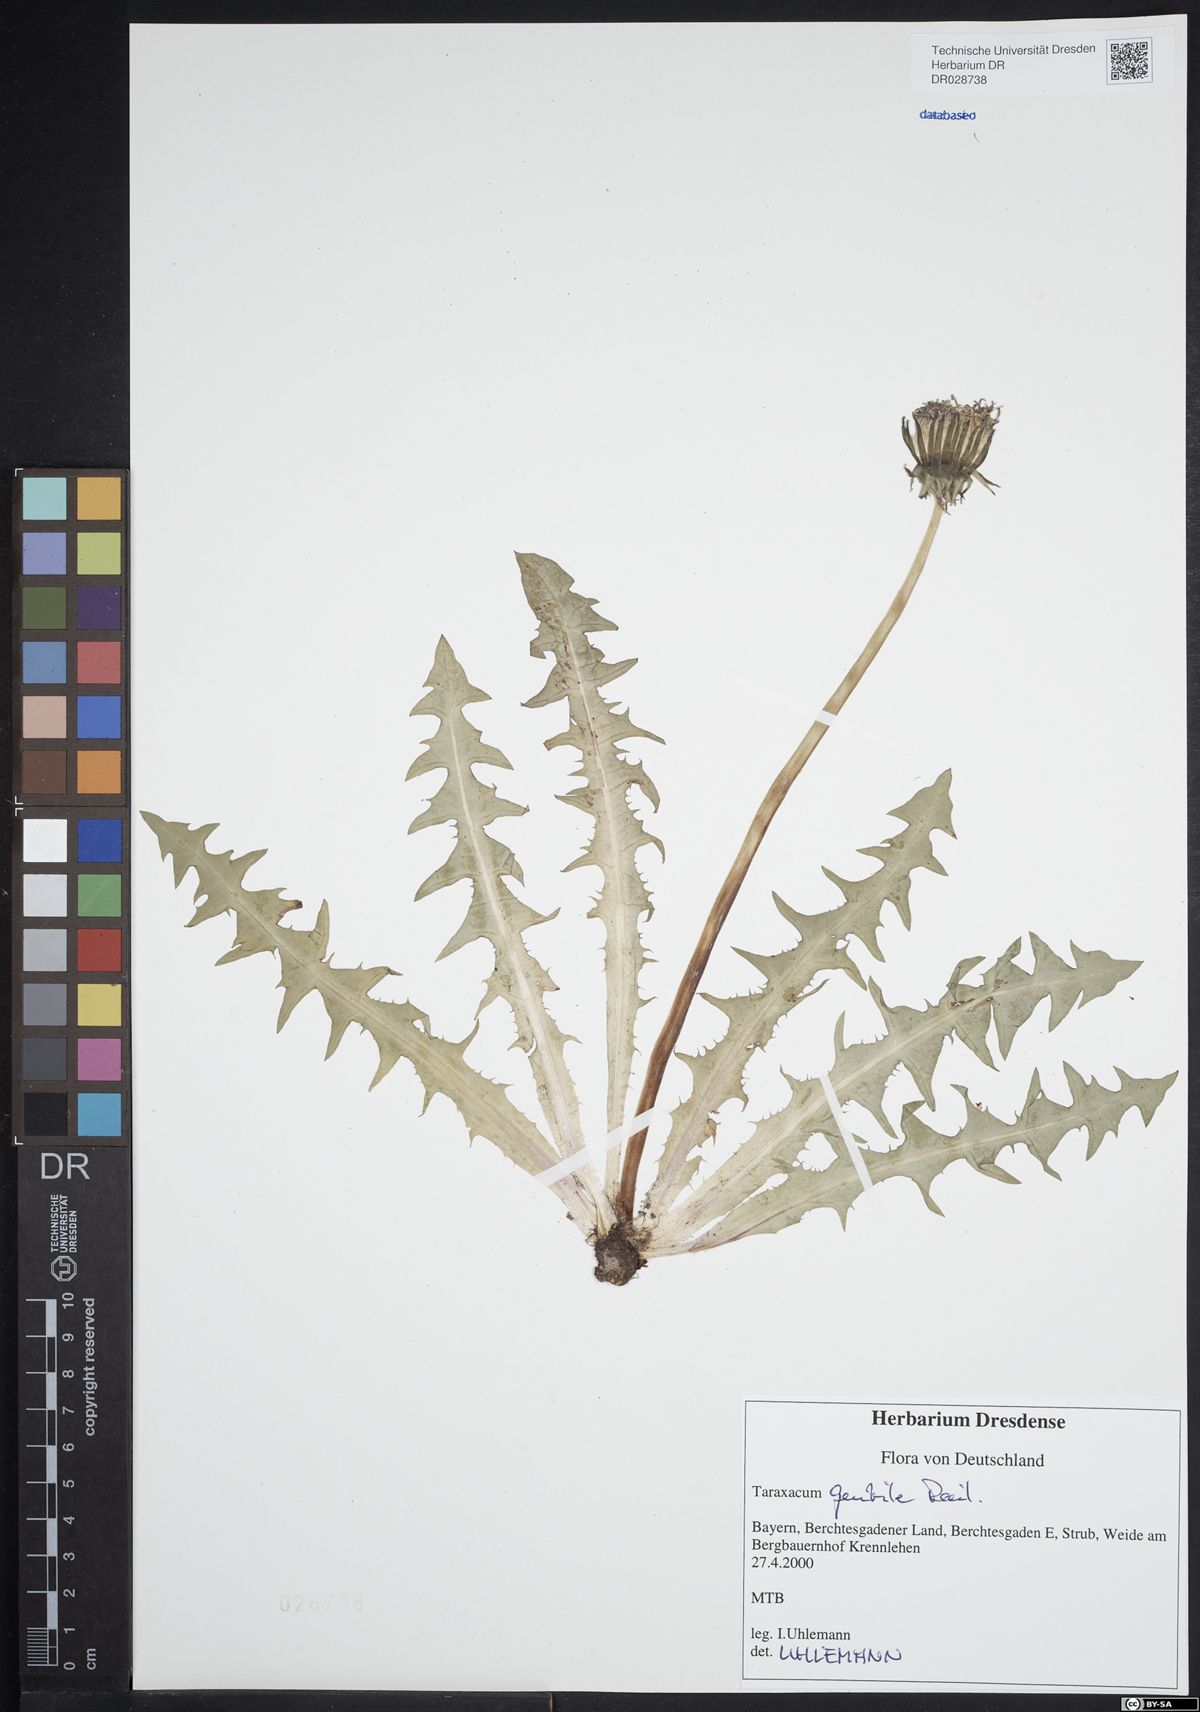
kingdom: Plantae
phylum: Tracheophyta
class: Magnoliopsida
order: Asterales
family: Asteraceae
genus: Taraxacum
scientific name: Taraxacum gentile
